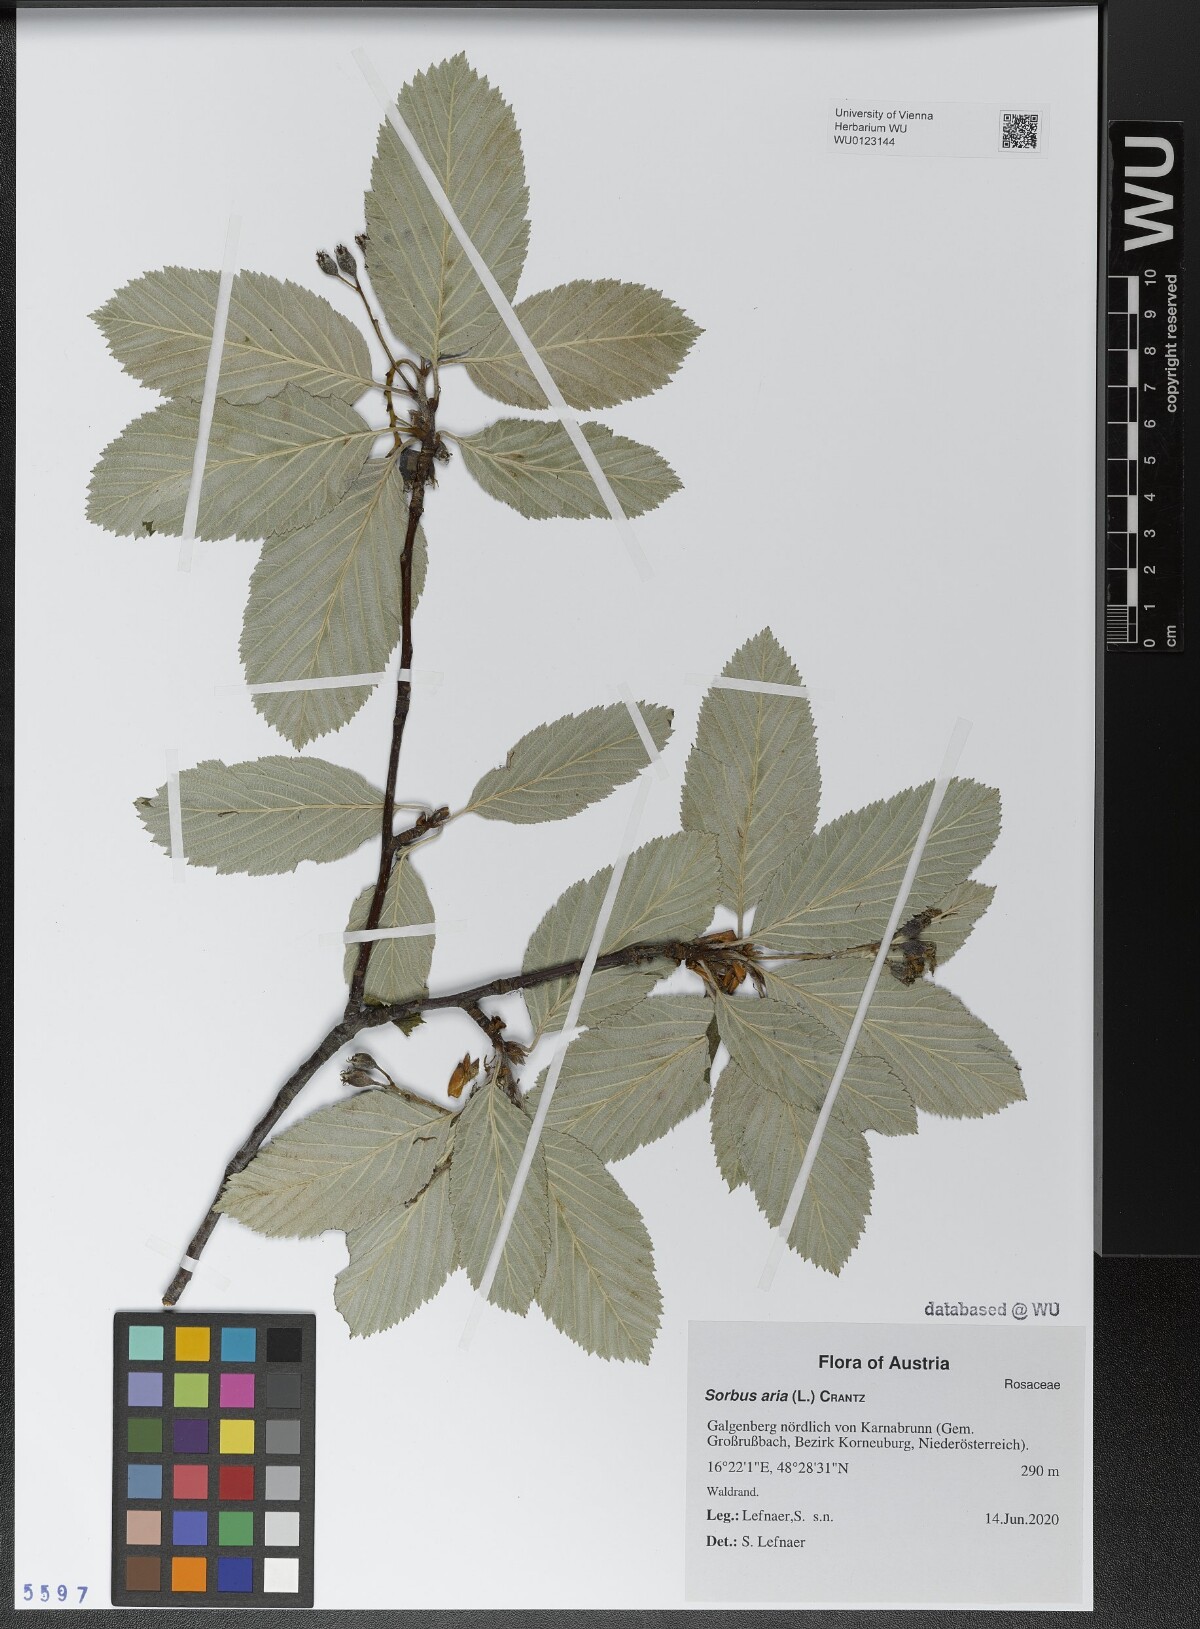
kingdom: Plantae
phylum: Tracheophyta
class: Magnoliopsida
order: Rosales
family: Rosaceae
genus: Aria
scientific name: Aria edulis
